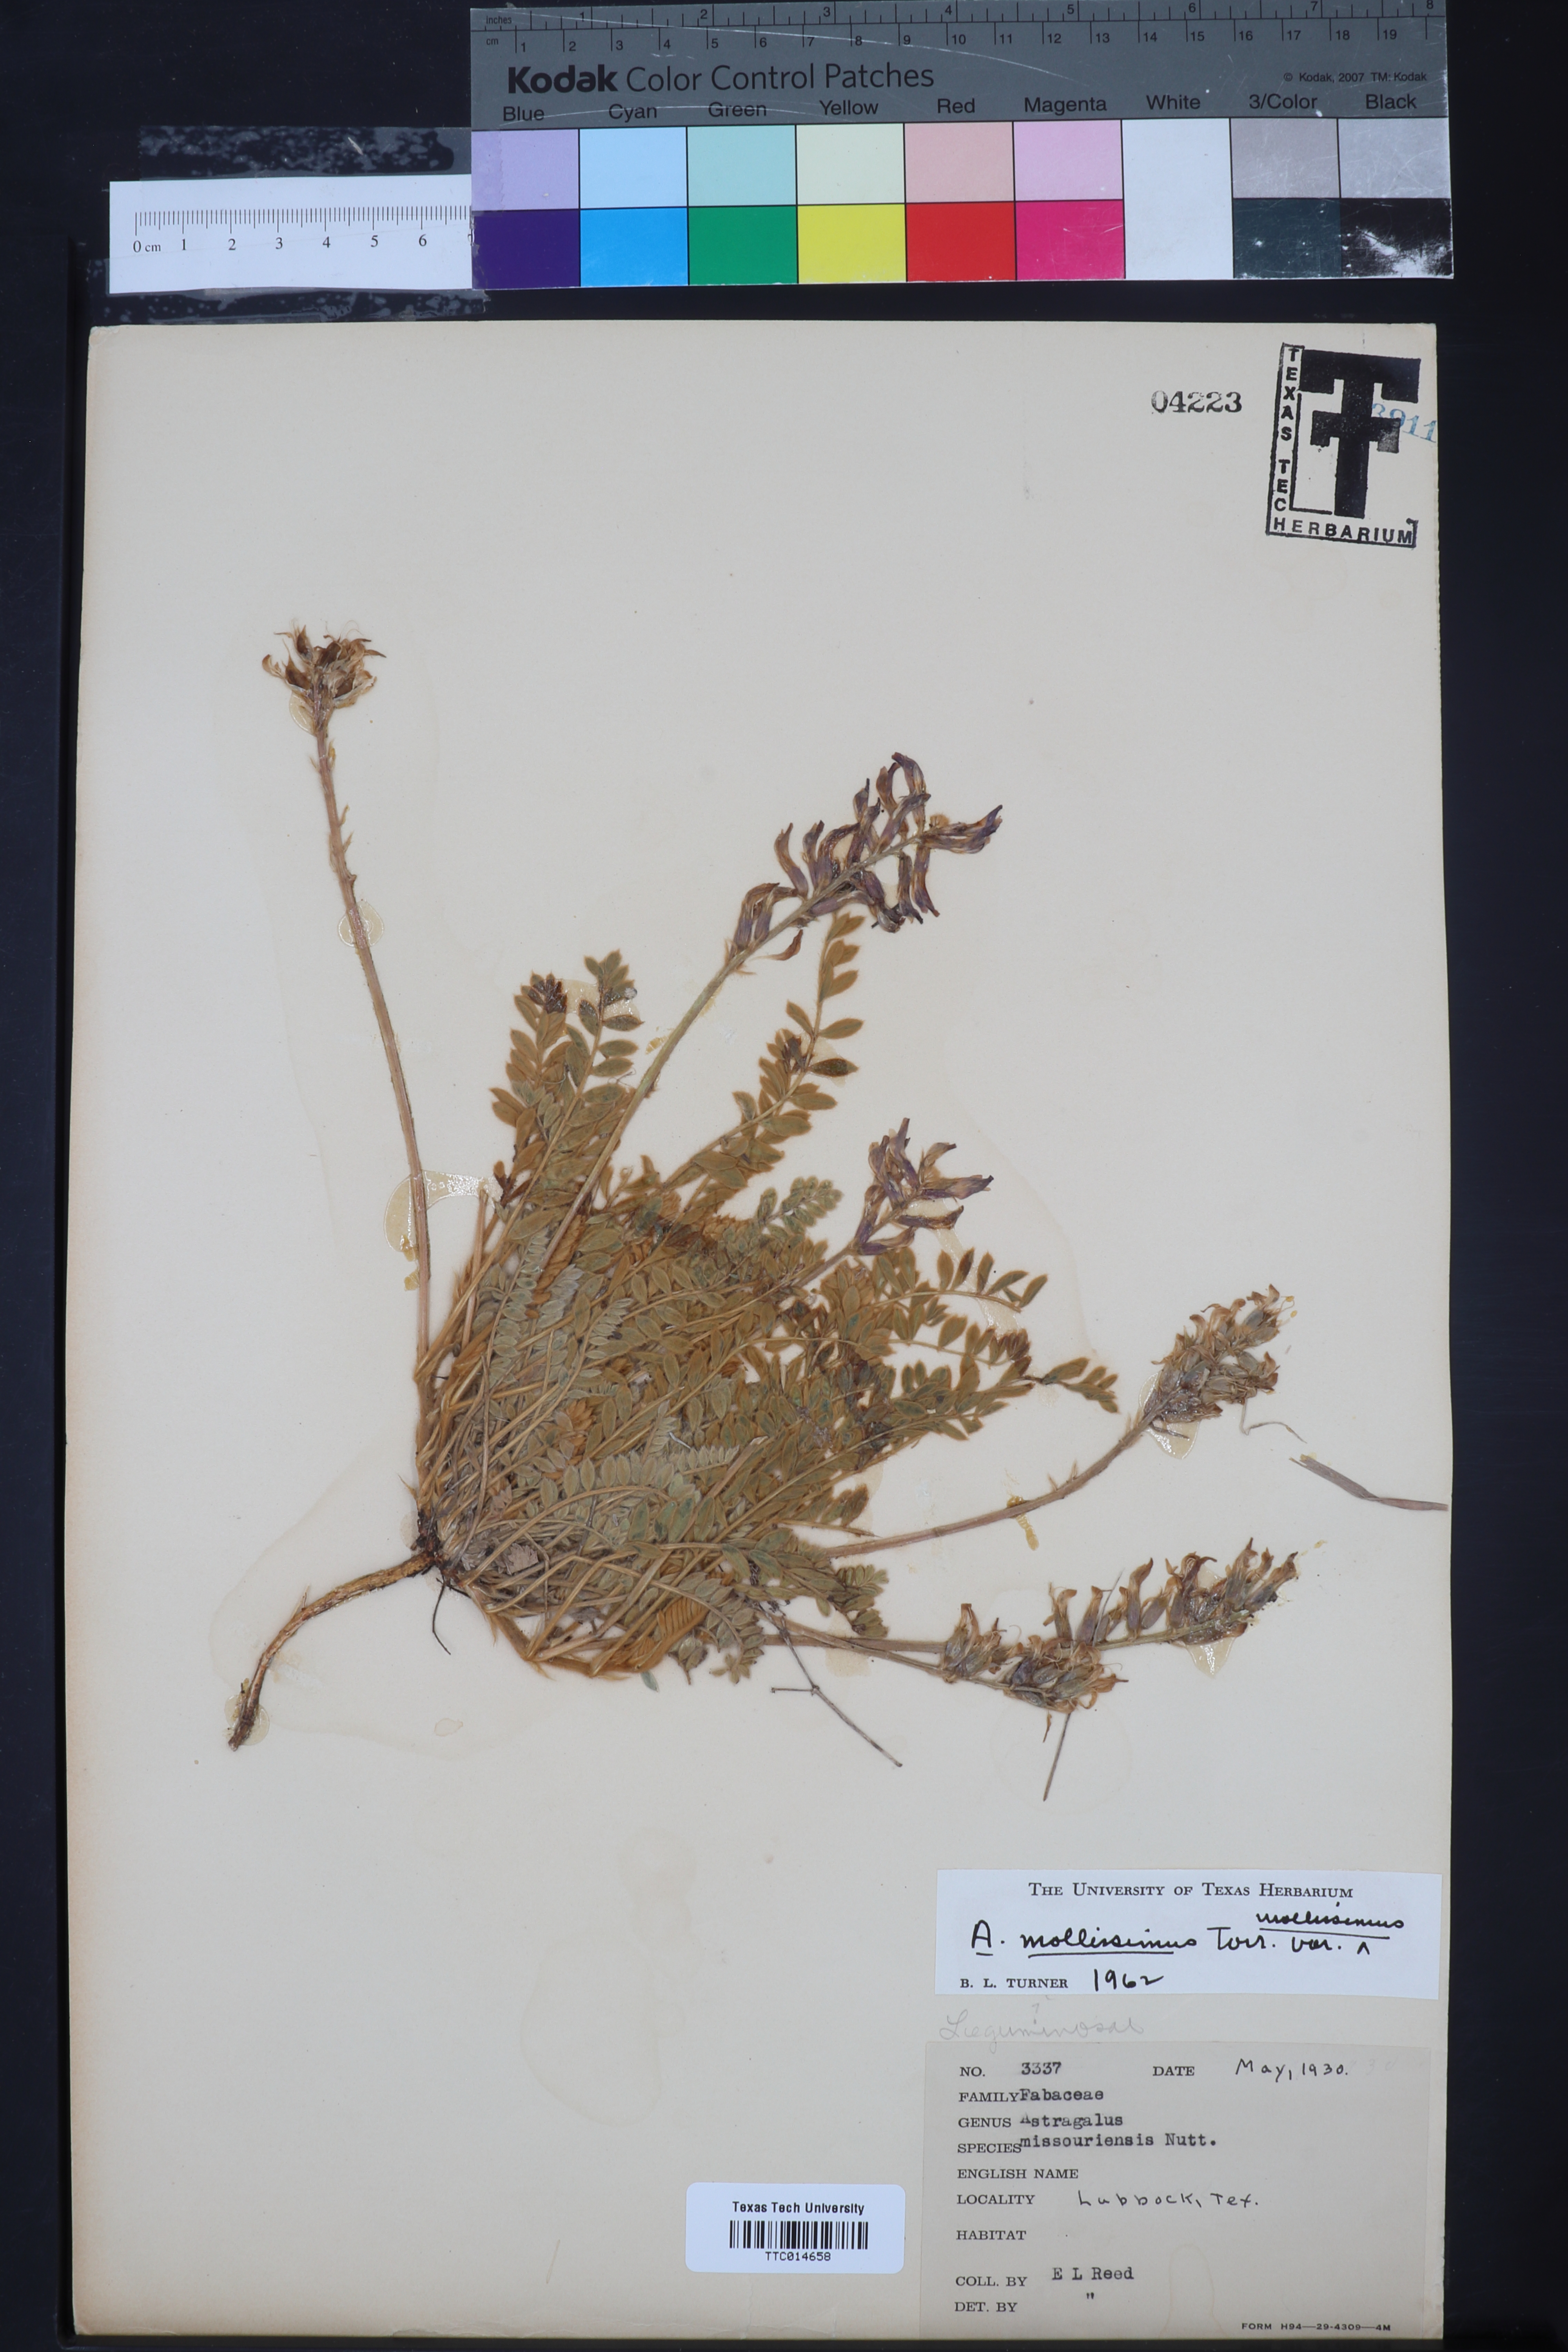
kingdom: Plantae
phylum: Tracheophyta
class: Magnoliopsida
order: Fabales
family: Fabaceae
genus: Astragalus
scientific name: Astragalus mollissimus
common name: Woolly locoweed
